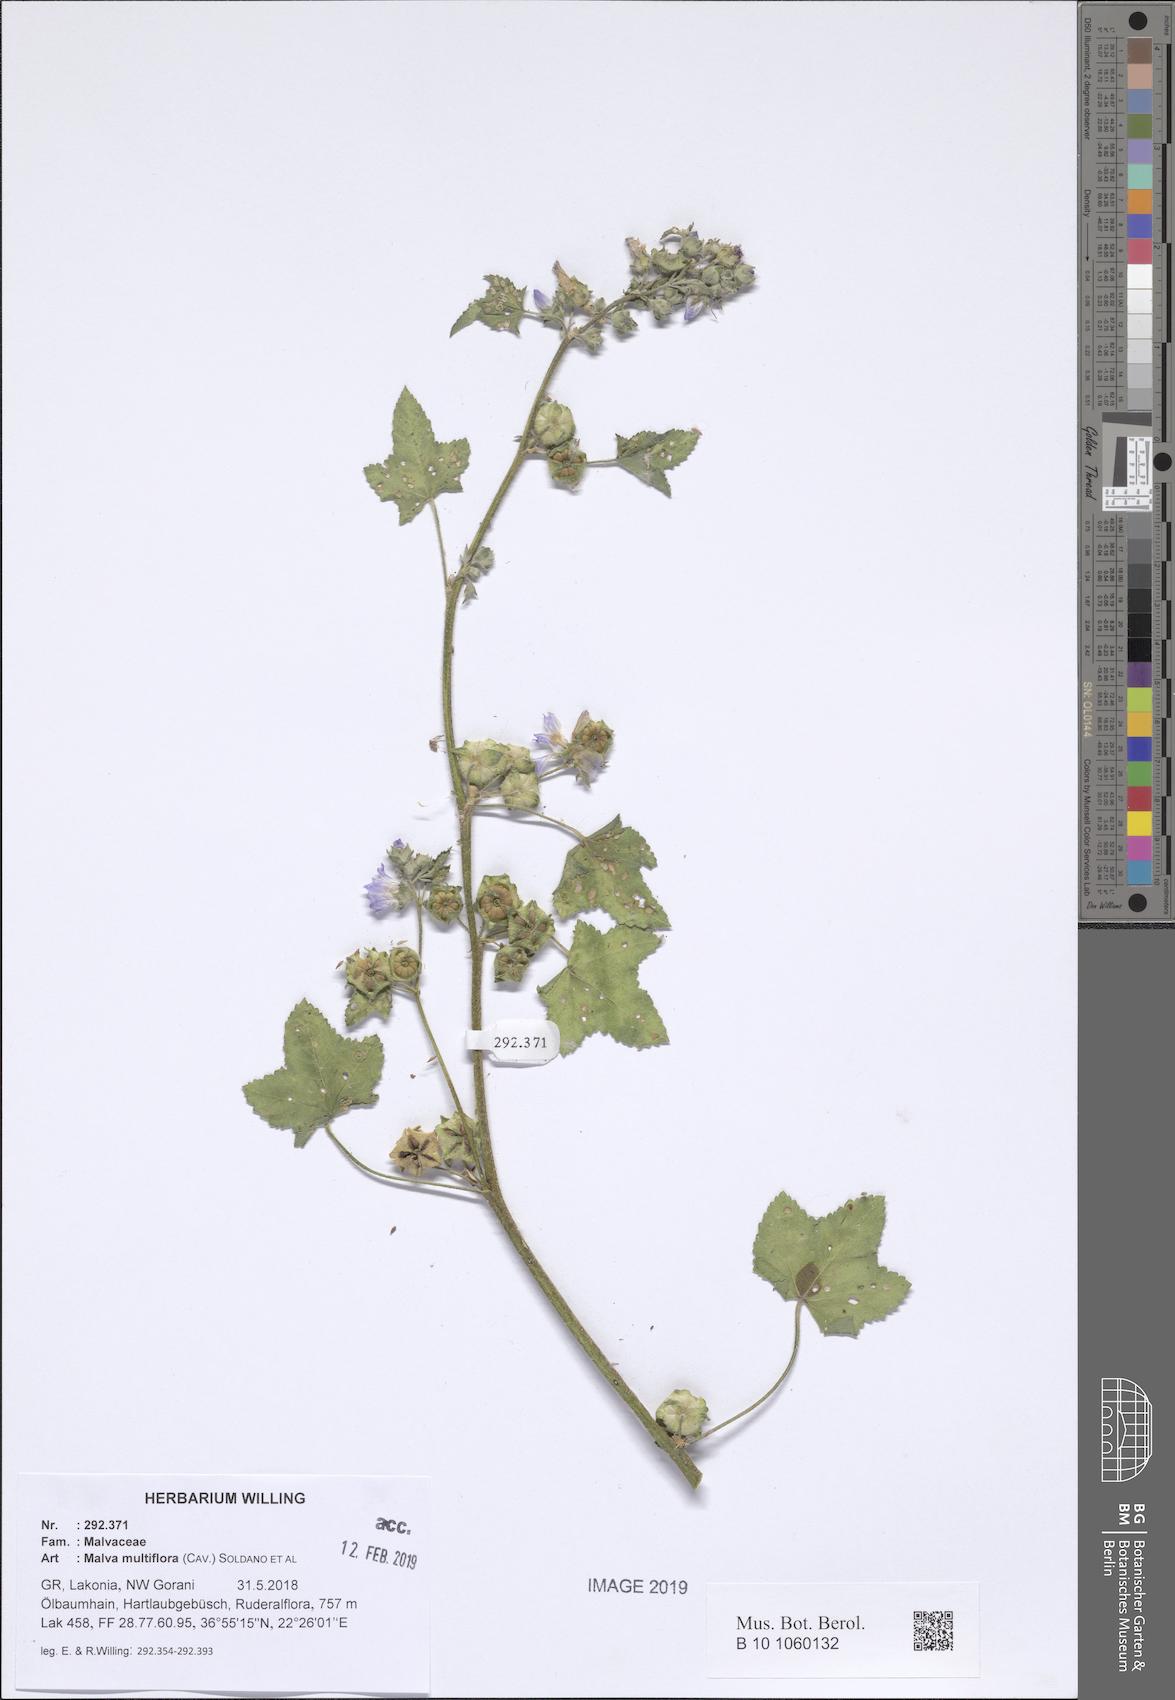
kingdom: Plantae
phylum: Tracheophyta
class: Magnoliopsida
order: Malvales
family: Malvaceae
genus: Malva
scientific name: Malva multiflora
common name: Cheeseweed
